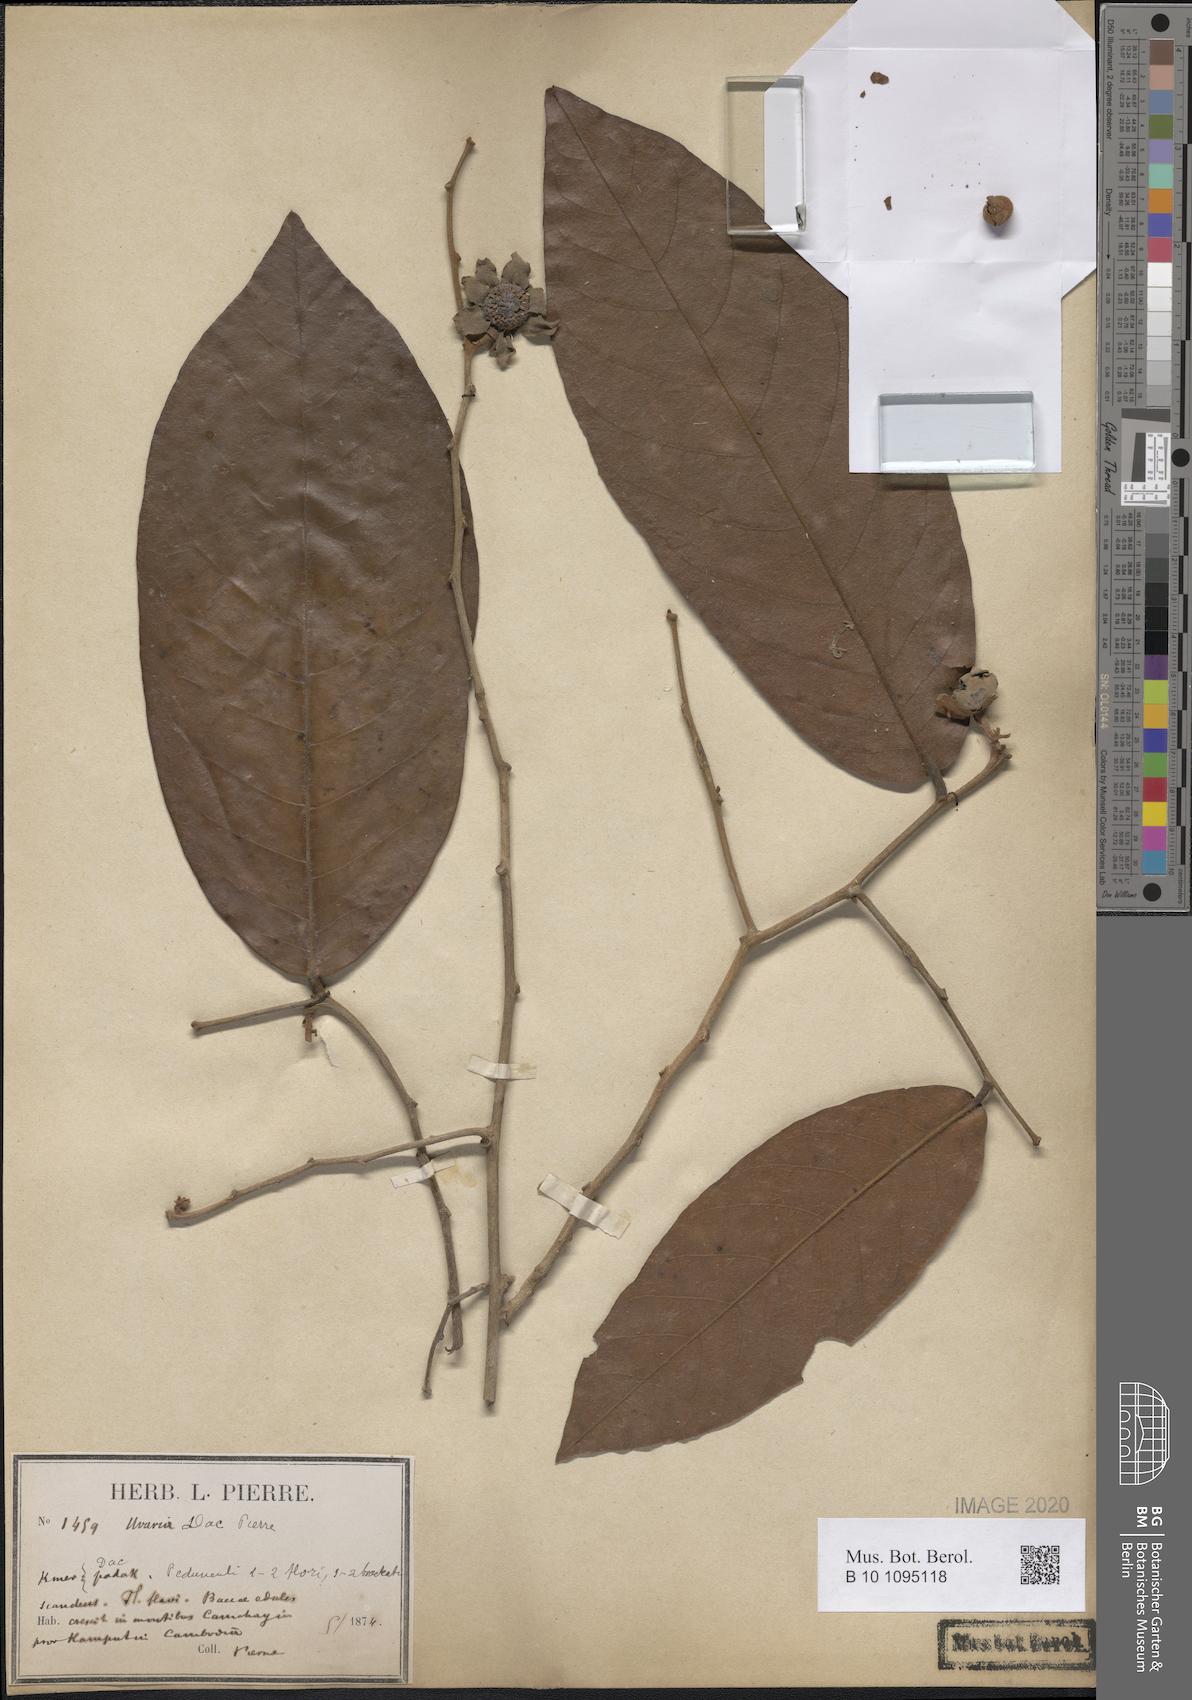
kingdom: Plantae
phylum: Tracheophyta
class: Magnoliopsida
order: Magnoliales
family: Annonaceae
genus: Uvaria
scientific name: Uvaria dac
